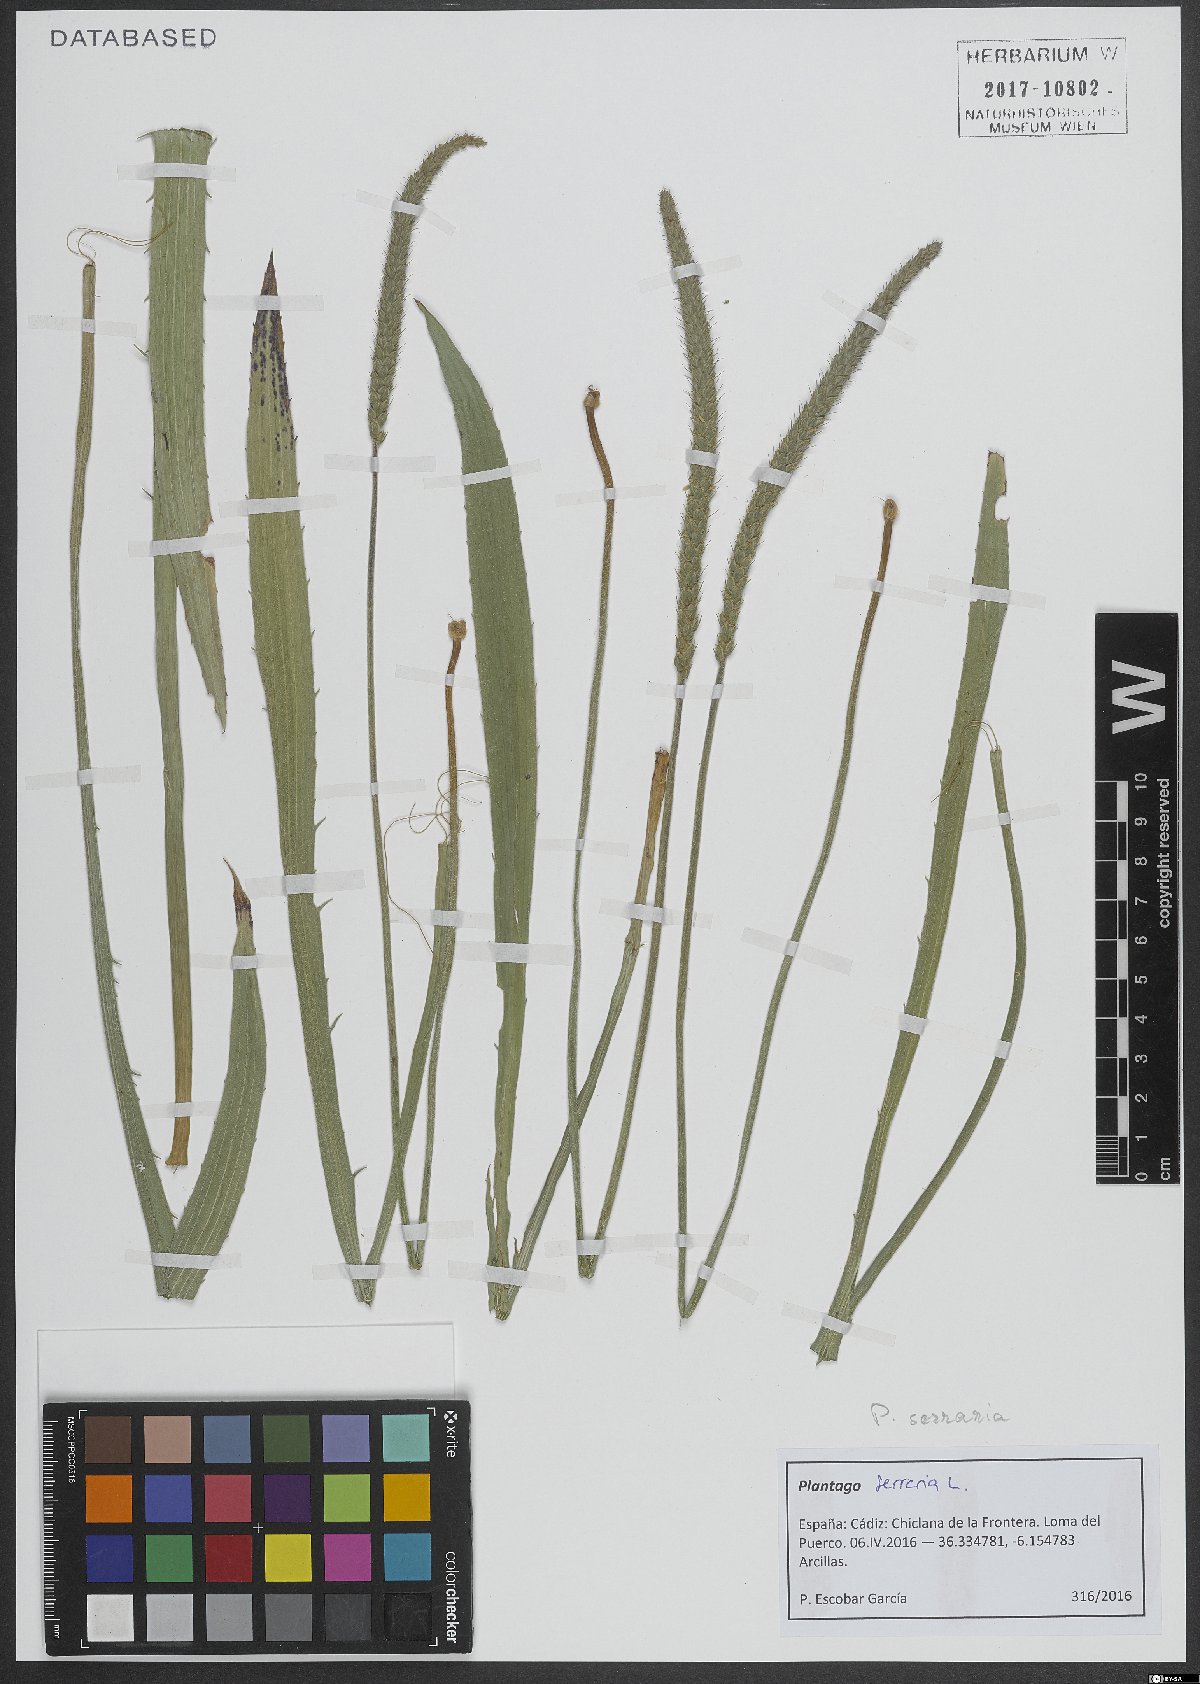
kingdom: Plantae
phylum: Tracheophyta
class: Magnoliopsida
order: Lamiales
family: Plantaginaceae
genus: Plantago
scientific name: Plantago serraria
